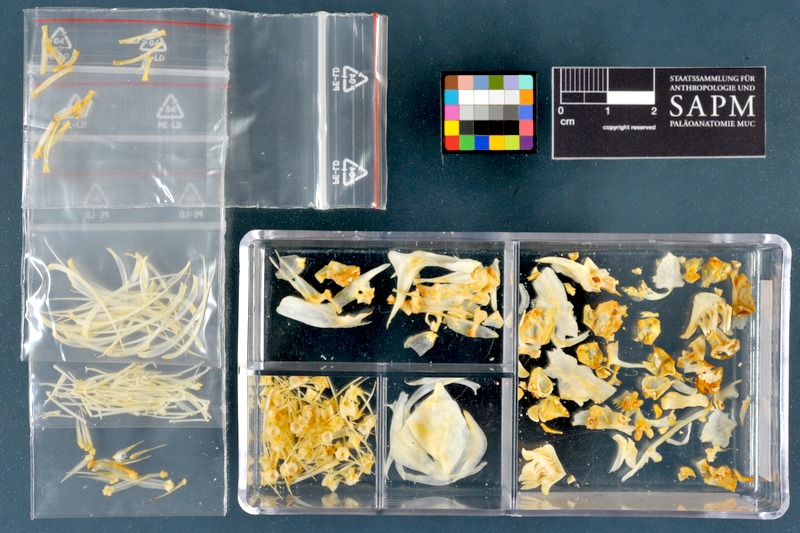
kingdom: Animalia
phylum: Chordata
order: Cypriniformes
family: Cyprinidae
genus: Chondrostoma
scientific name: Chondrostoma regium
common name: Mesopotamian nase
